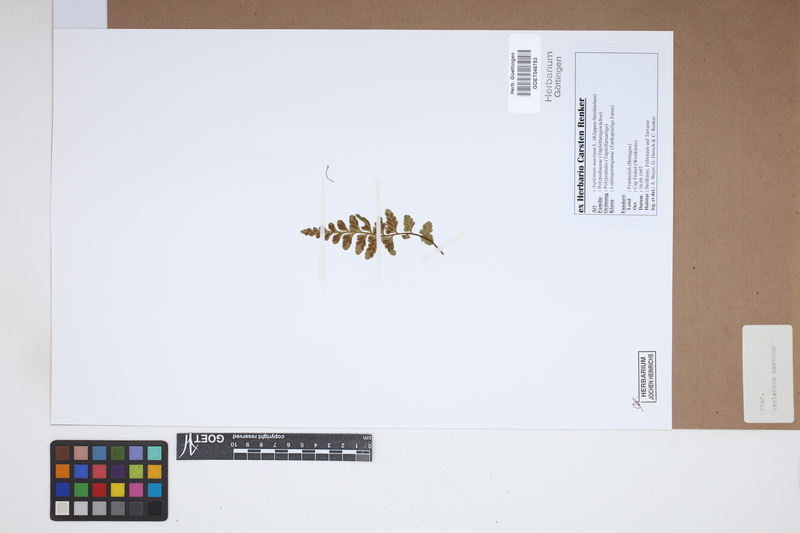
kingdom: Plantae
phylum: Tracheophyta
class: Polypodiopsida
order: Polypodiales
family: Aspleniaceae
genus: Asplenium
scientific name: Asplenium marinum
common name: Sea spleenwort
